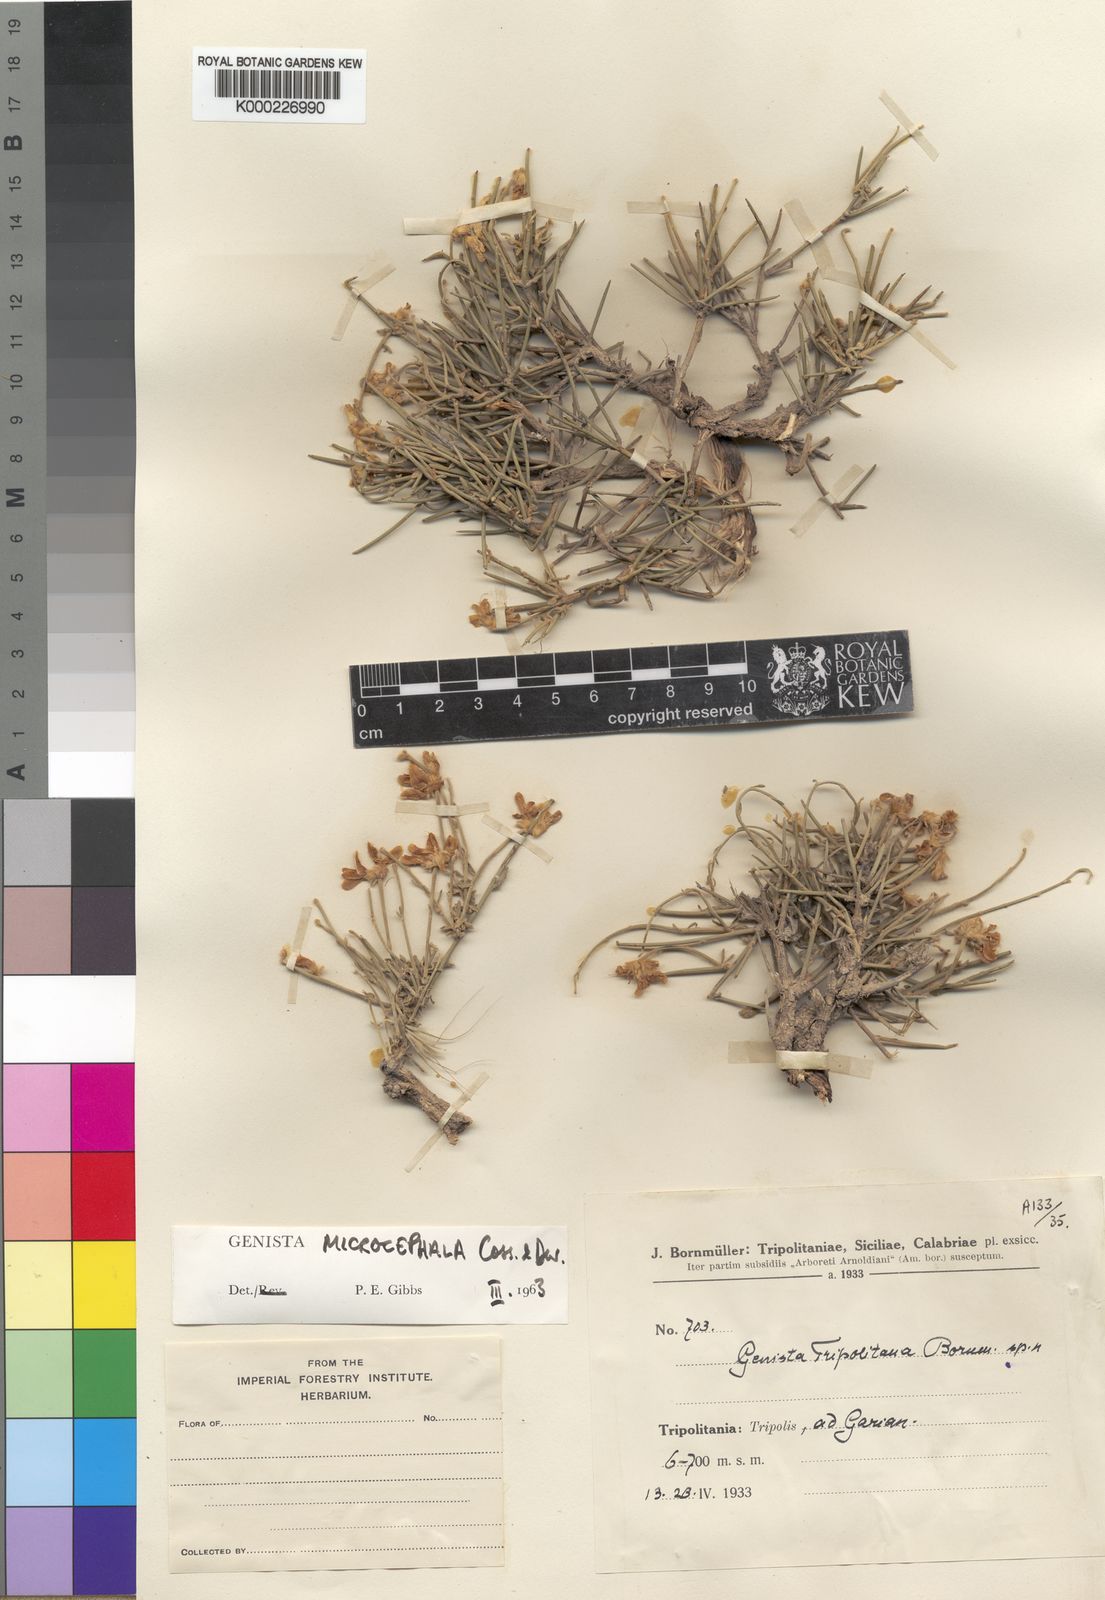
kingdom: Plantae
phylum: Tracheophyta
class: Magnoliopsida
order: Fabales
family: Fabaceae
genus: Genista
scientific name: Genista microcephala
